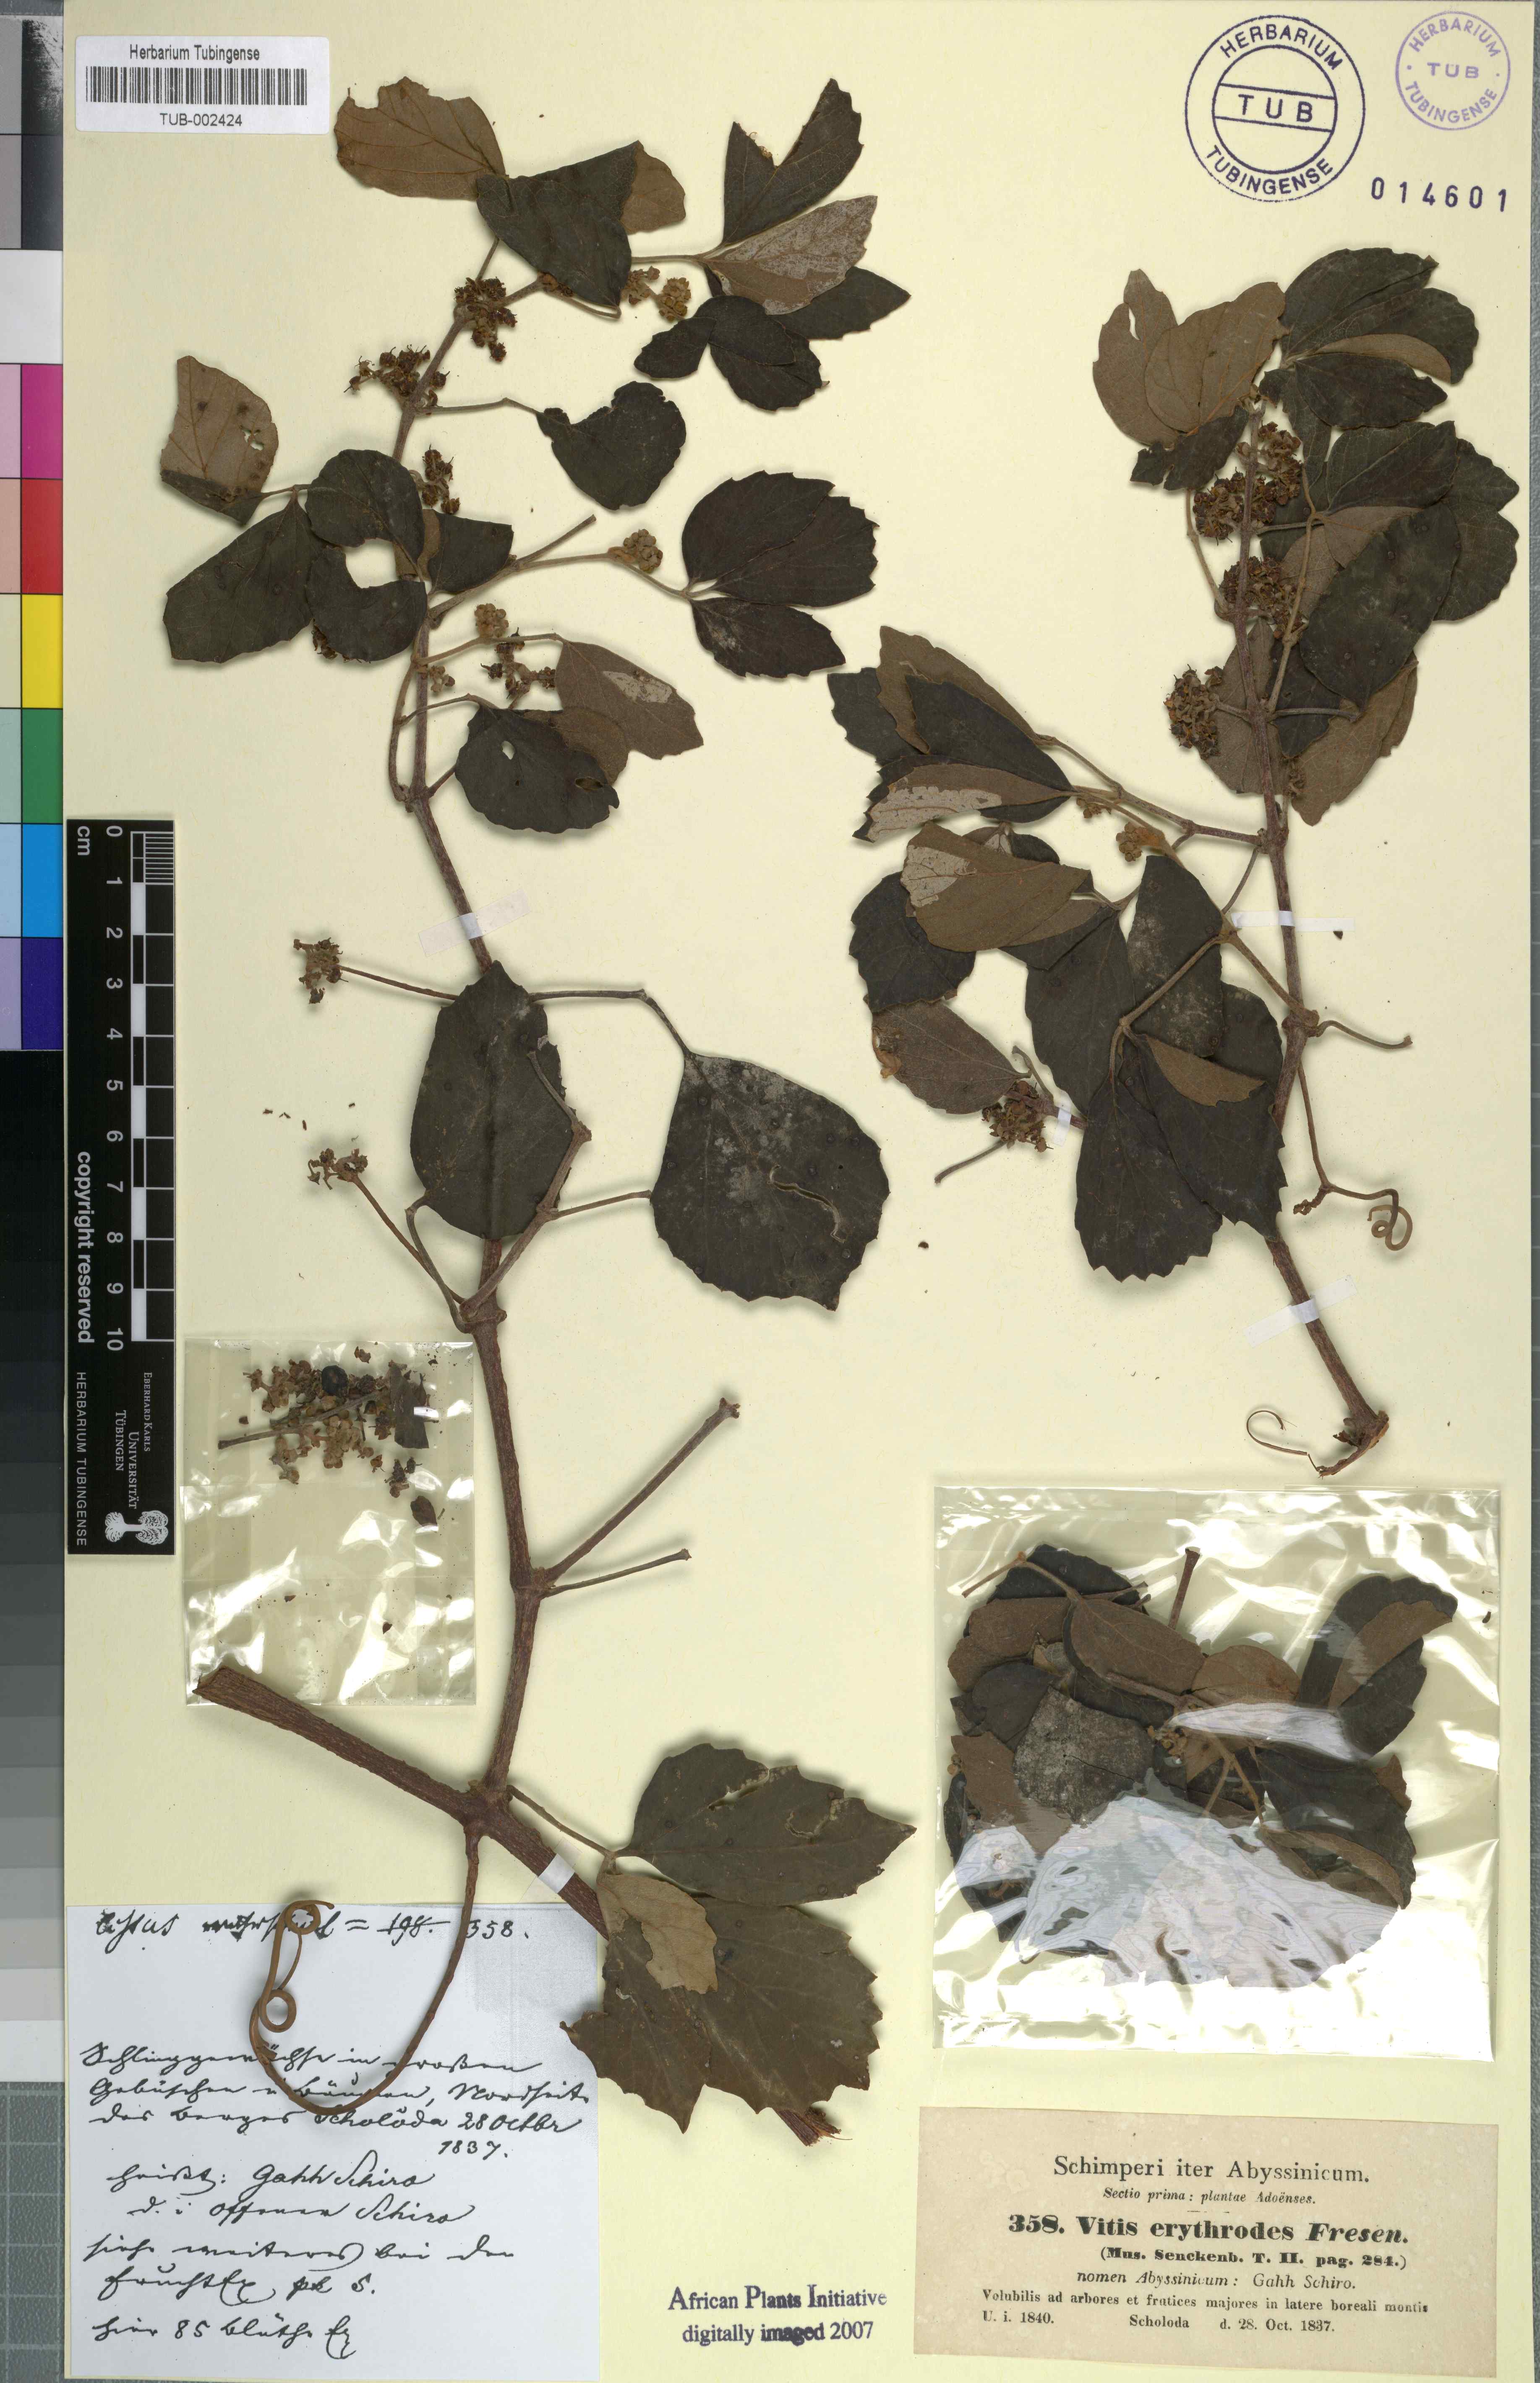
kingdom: Plantae
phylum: Tracheophyta
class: Magnoliopsida
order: Vitales
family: Vitaceae
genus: Rhoicissus
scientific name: Rhoicissus tridentata
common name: Common forest grape
